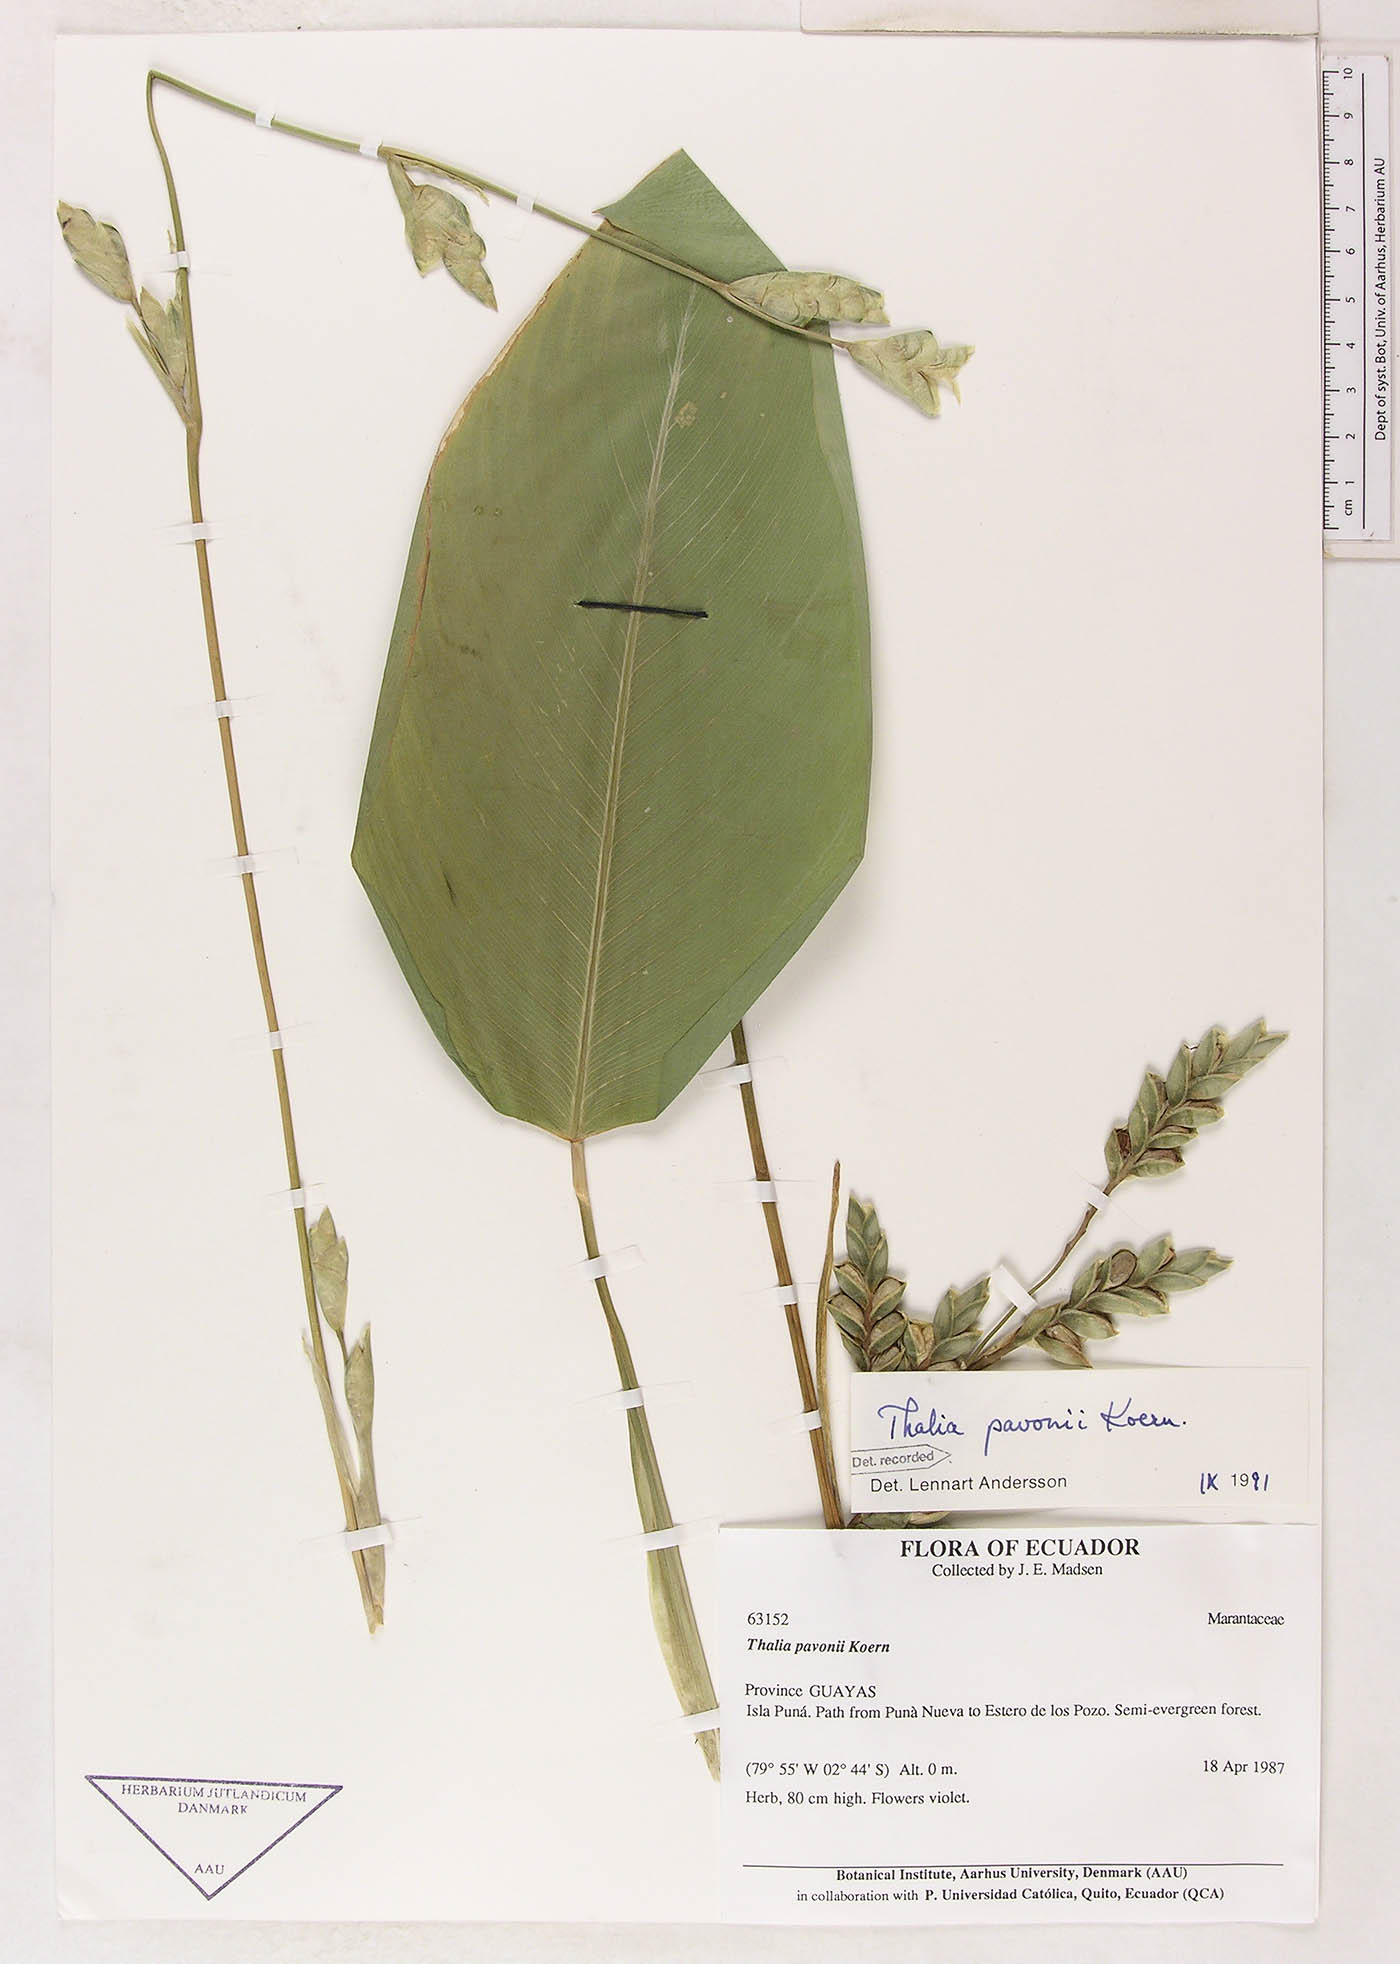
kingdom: Plantae
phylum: Tracheophyta
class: Liliopsida
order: Zingiberales
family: Marantaceae
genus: Thalia
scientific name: Thalia pavonii
